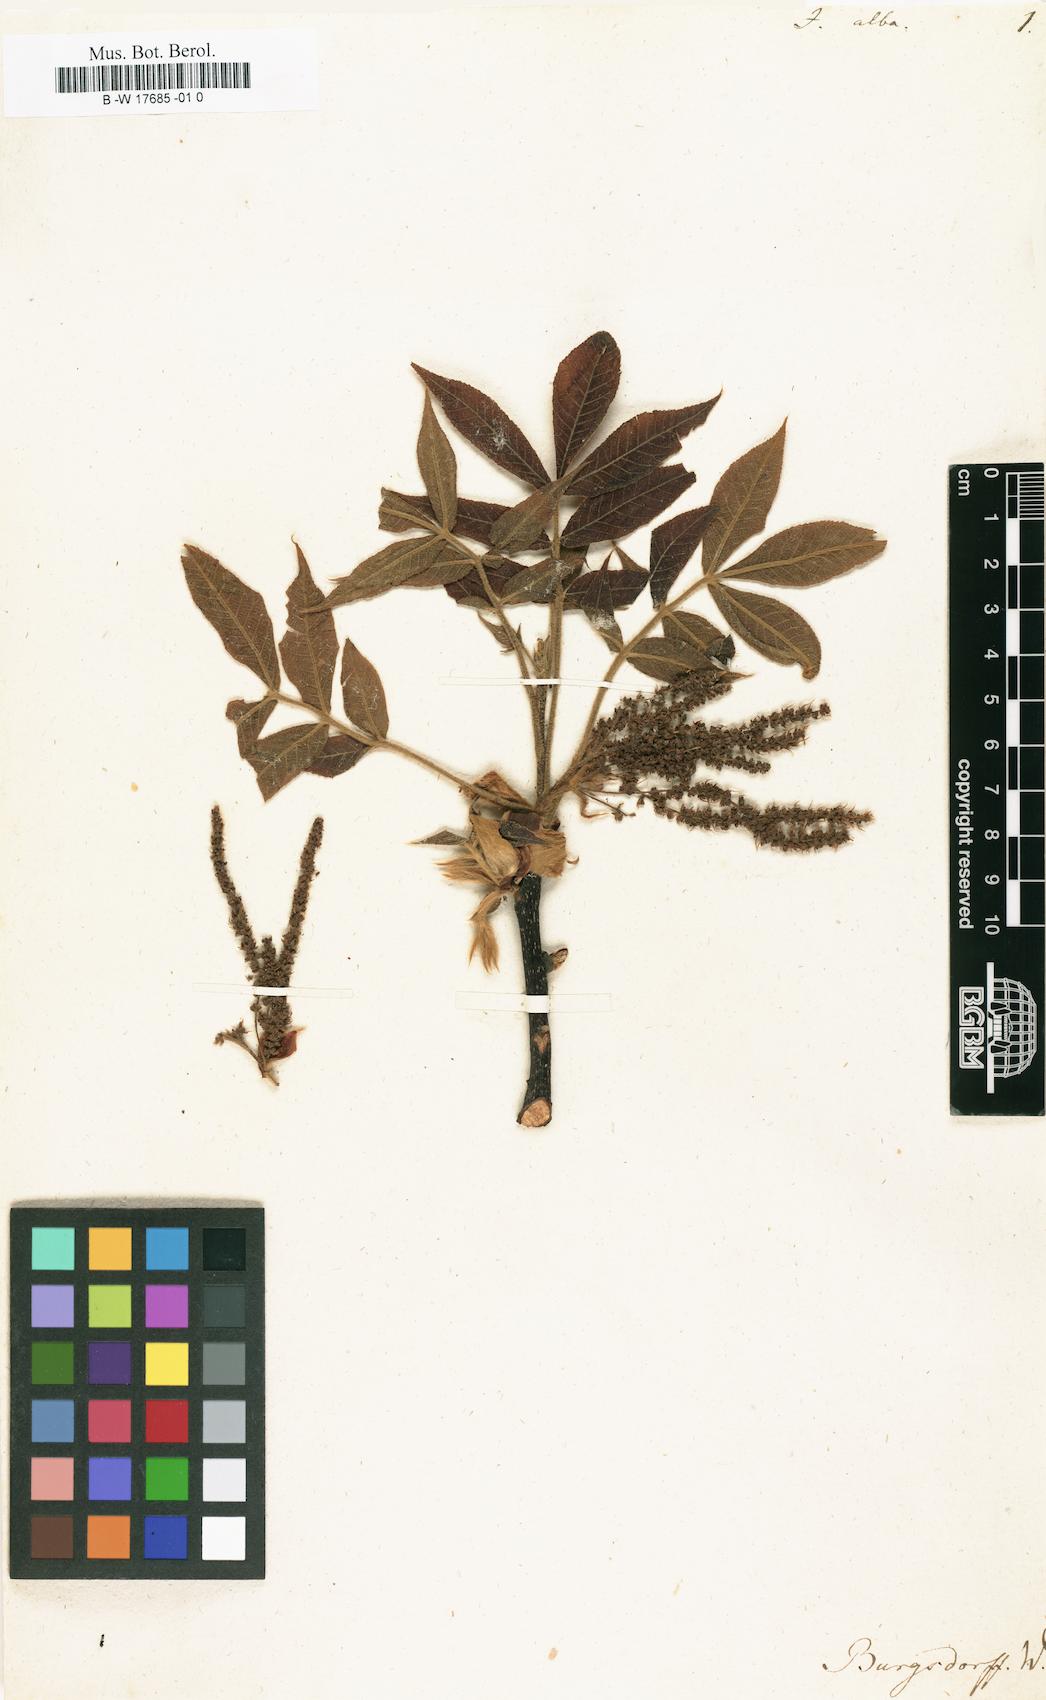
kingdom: Plantae
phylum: Tracheophyta
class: Magnoliopsida
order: Fagales
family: Juglandaceae
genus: Carya
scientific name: Carya alba
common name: Mockernut hickory
